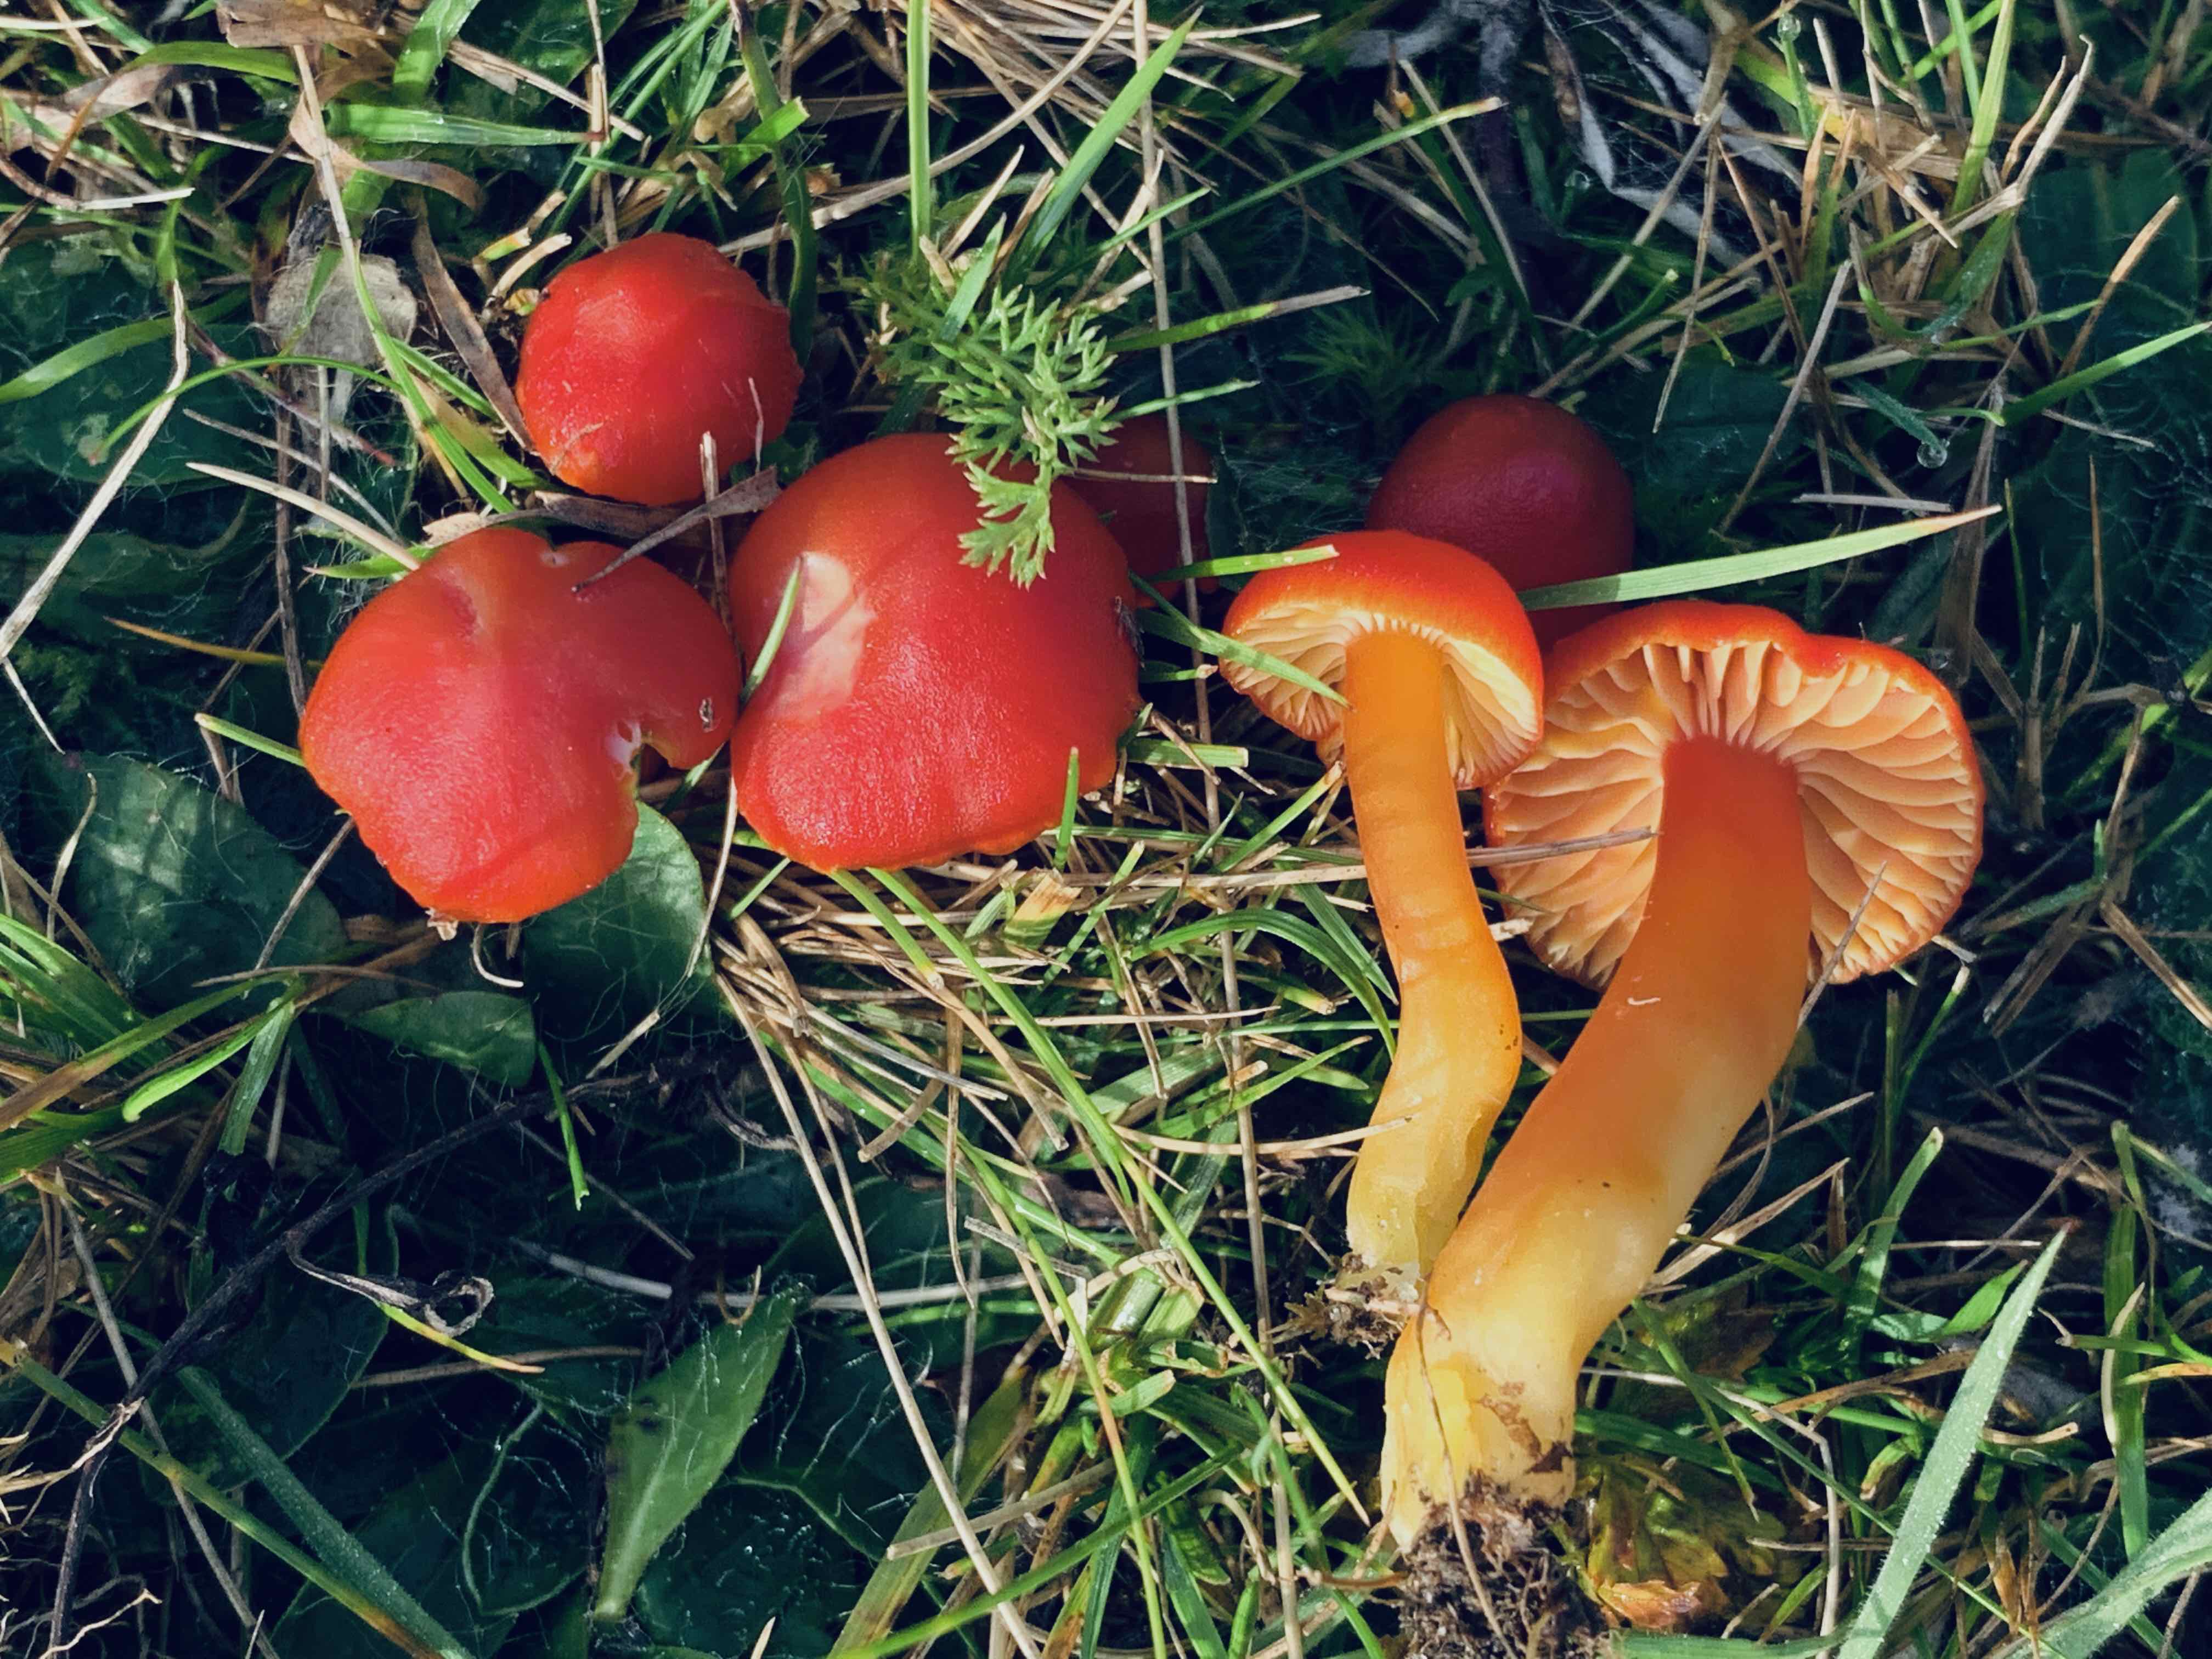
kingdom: Fungi
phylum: Basidiomycota
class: Agaricomycetes
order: Agaricales
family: Hygrophoraceae
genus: Hygrocybe
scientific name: Hygrocybe coccinea
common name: cinnober-vokshat
